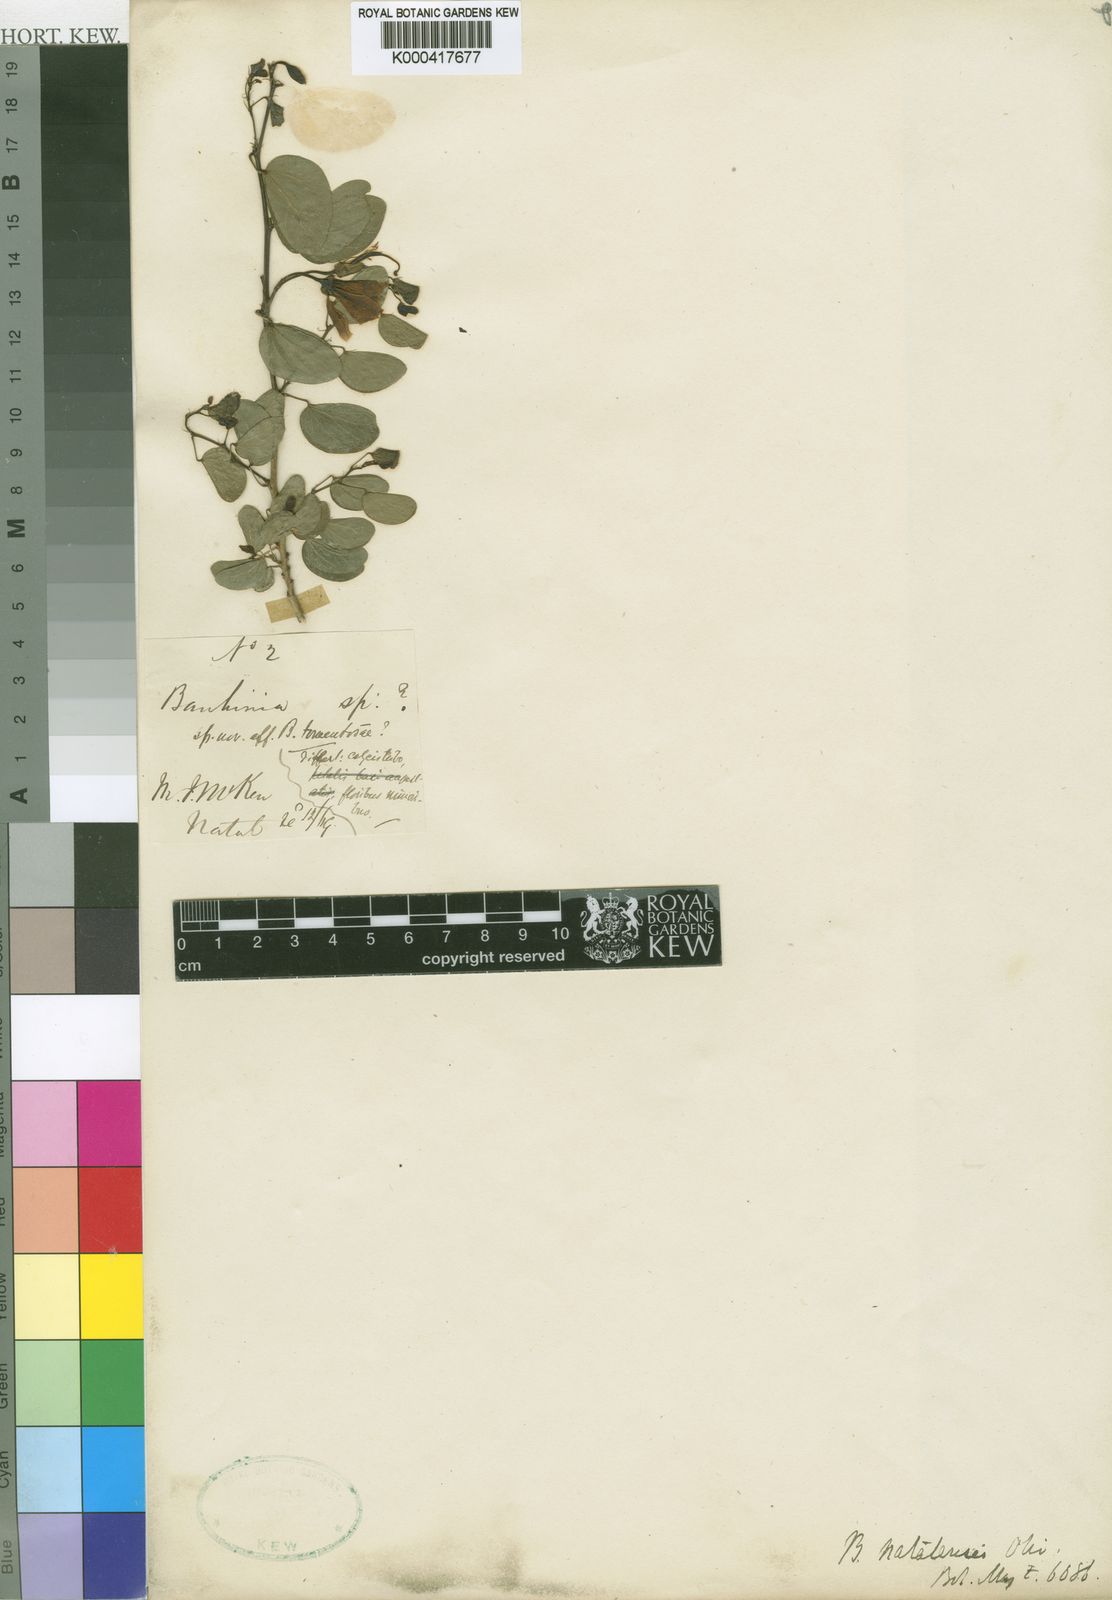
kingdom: Plantae
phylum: Tracheophyta
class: Magnoliopsida
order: Fabales
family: Fabaceae
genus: Bauhinia
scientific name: Bauhinia
